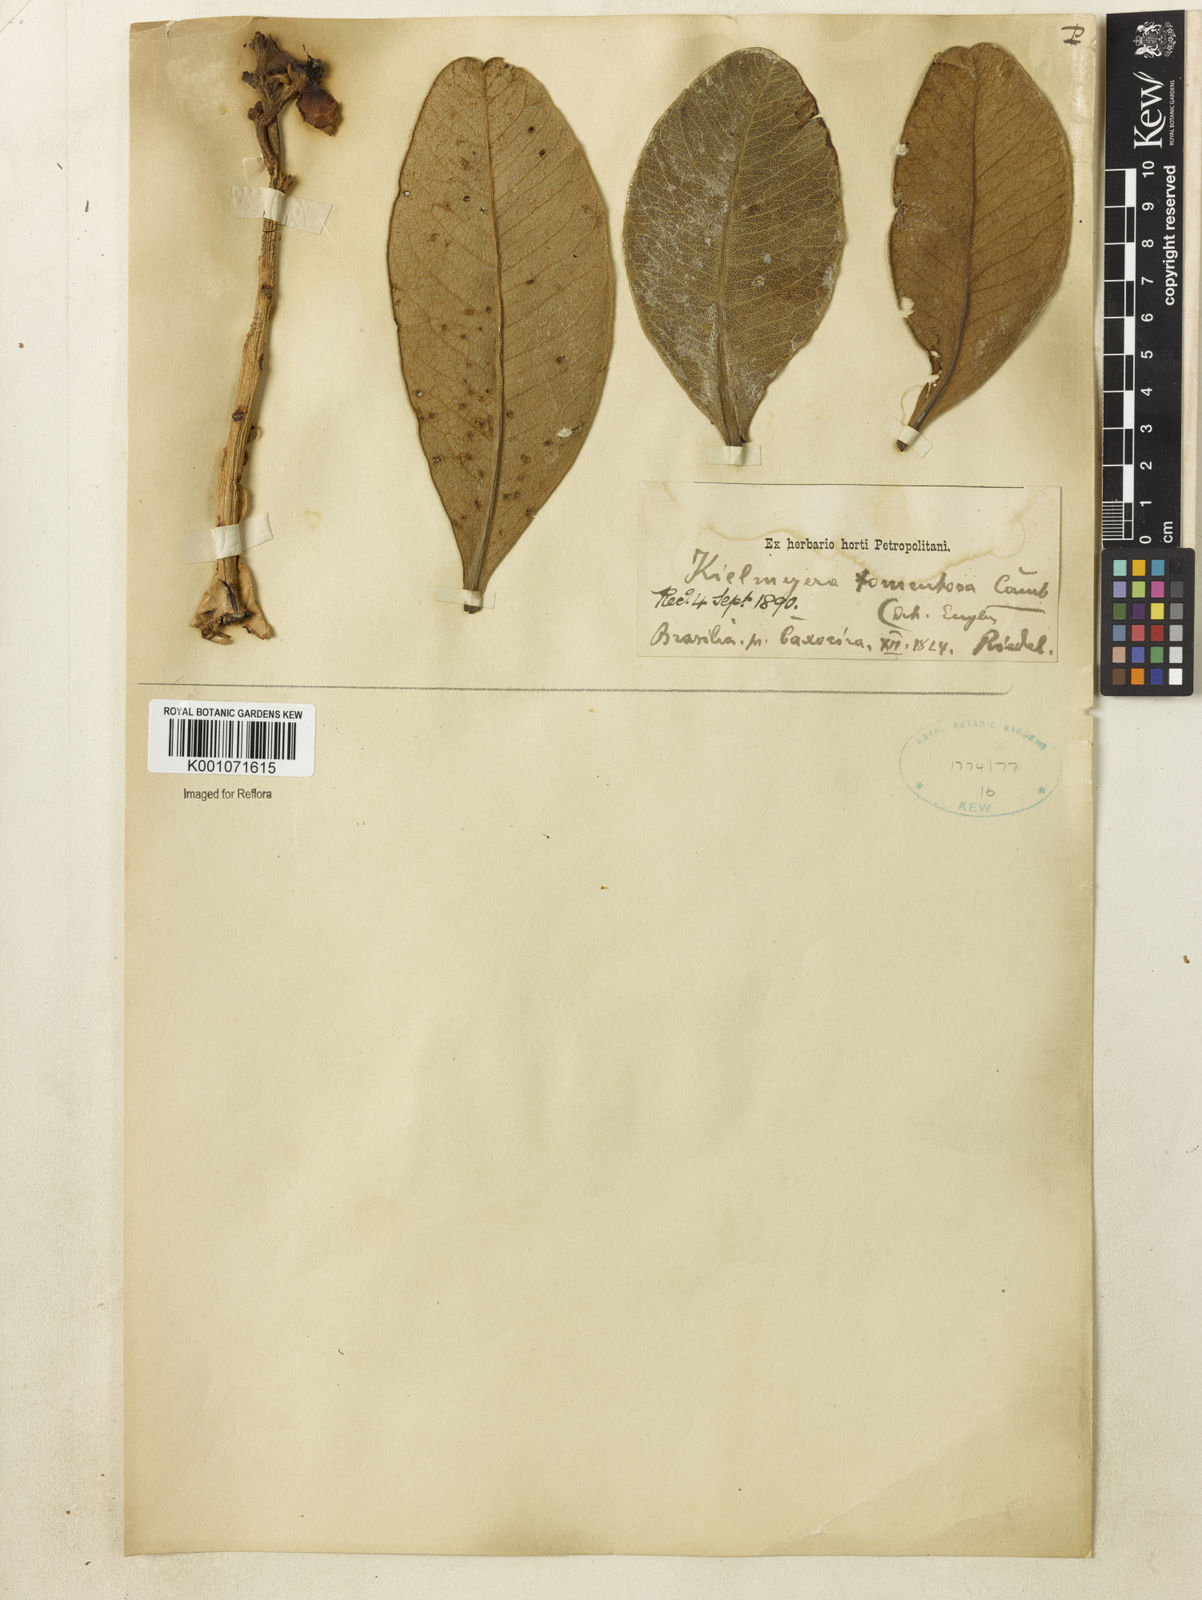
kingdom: Plantae
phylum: Tracheophyta
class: Magnoliopsida
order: Malpighiales
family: Calophyllaceae
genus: Kielmeyera
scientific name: Kielmeyera tomentosa
